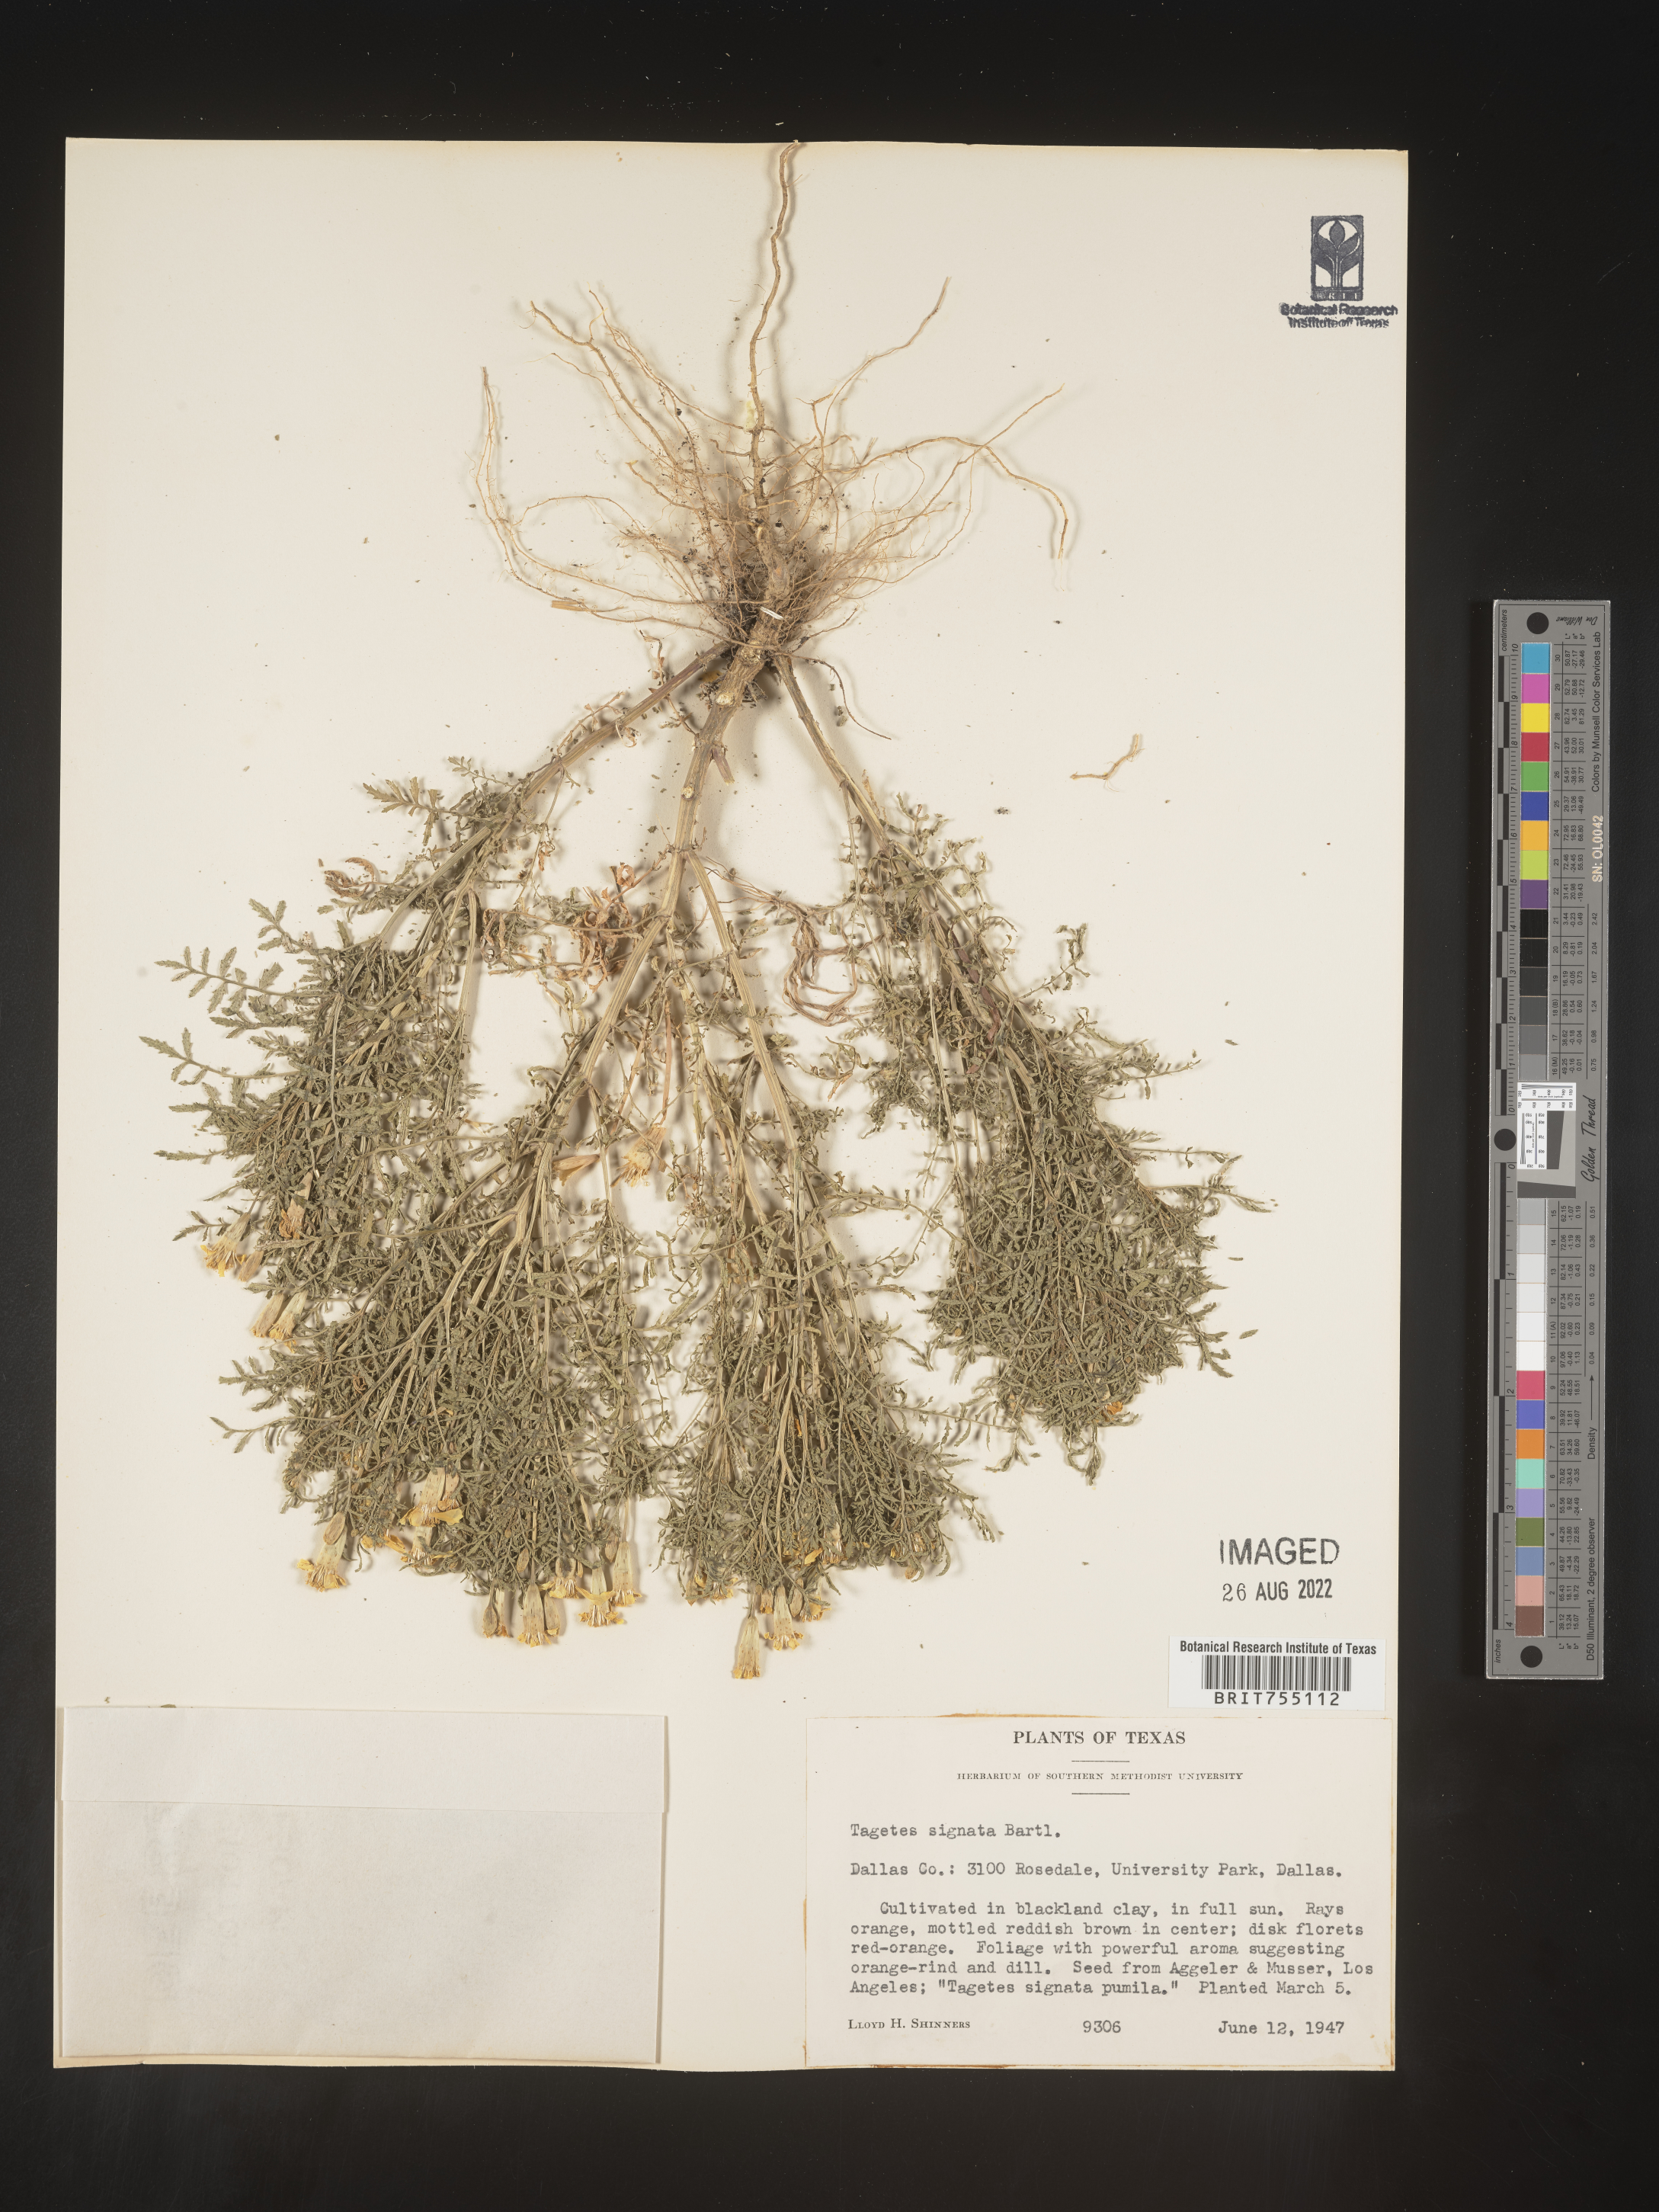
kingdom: Plantae
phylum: Tracheophyta
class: Magnoliopsida
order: Asterales
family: Asteraceae
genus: Tagetes
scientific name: Tagetes
